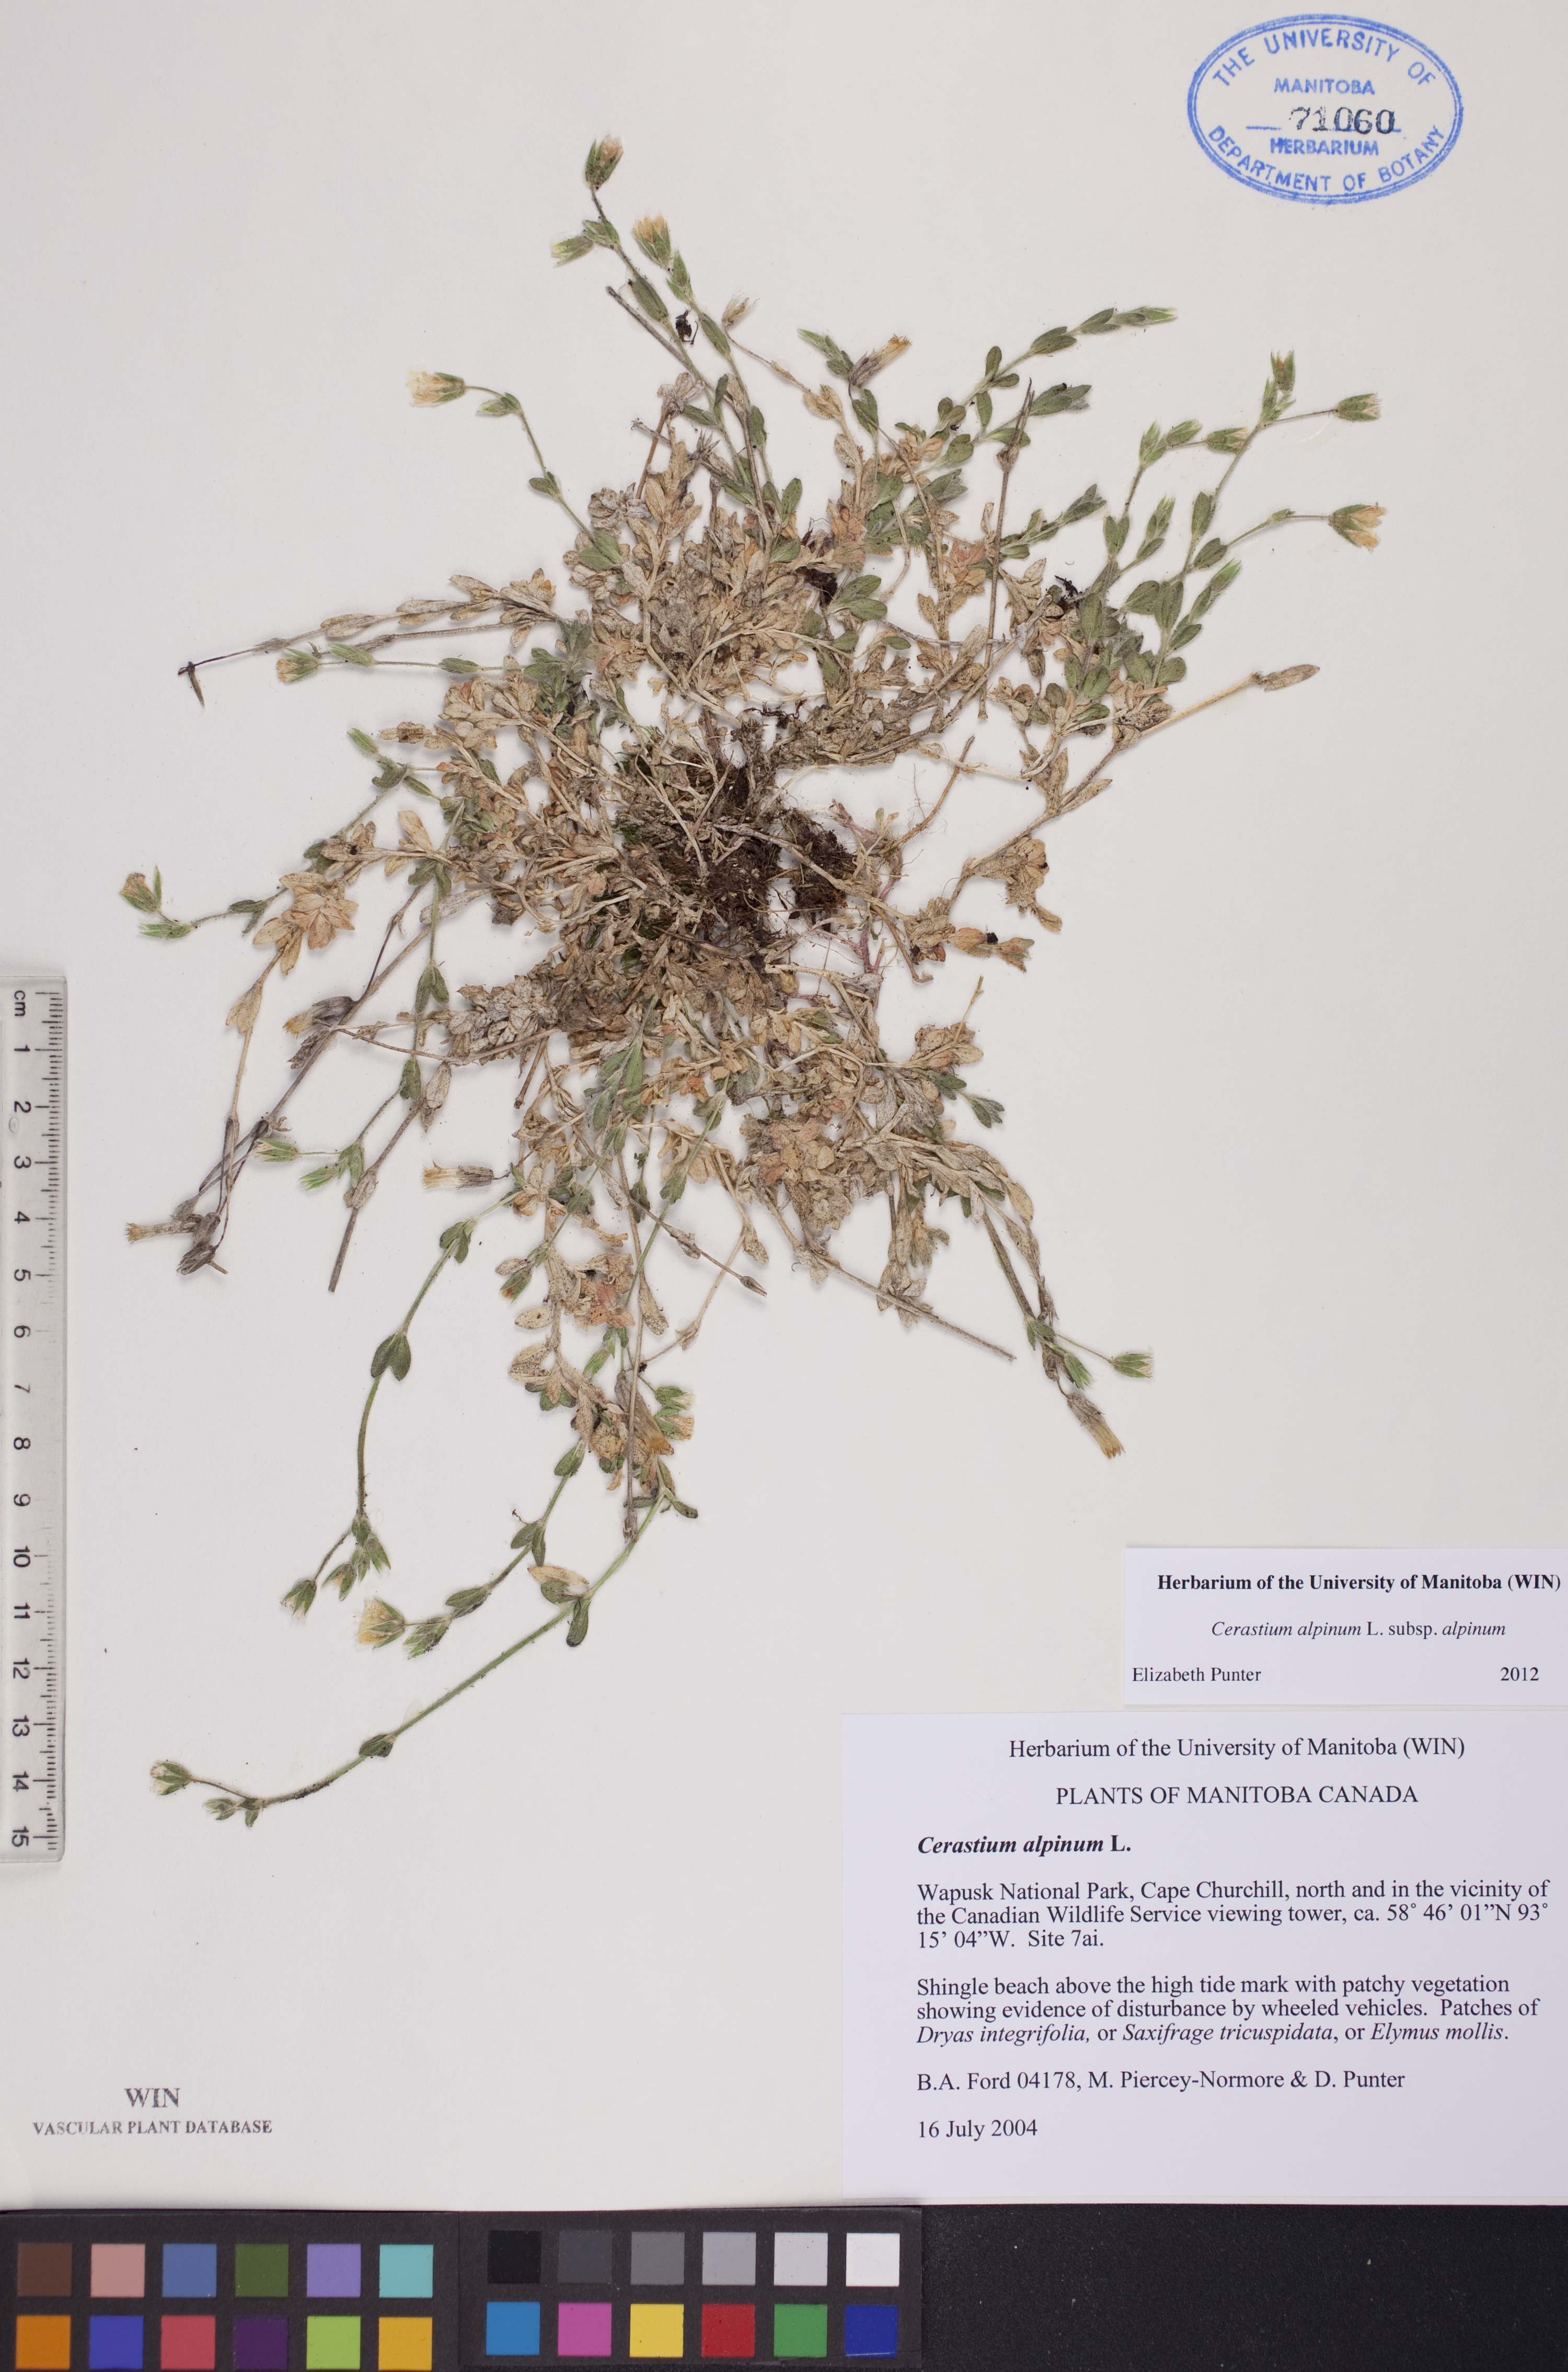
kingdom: Plantae
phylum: Tracheophyta
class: Magnoliopsida
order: Caryophyllales
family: Caryophyllaceae
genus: Cerastium
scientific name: Cerastium alpinum
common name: Alpine mouse-ear
